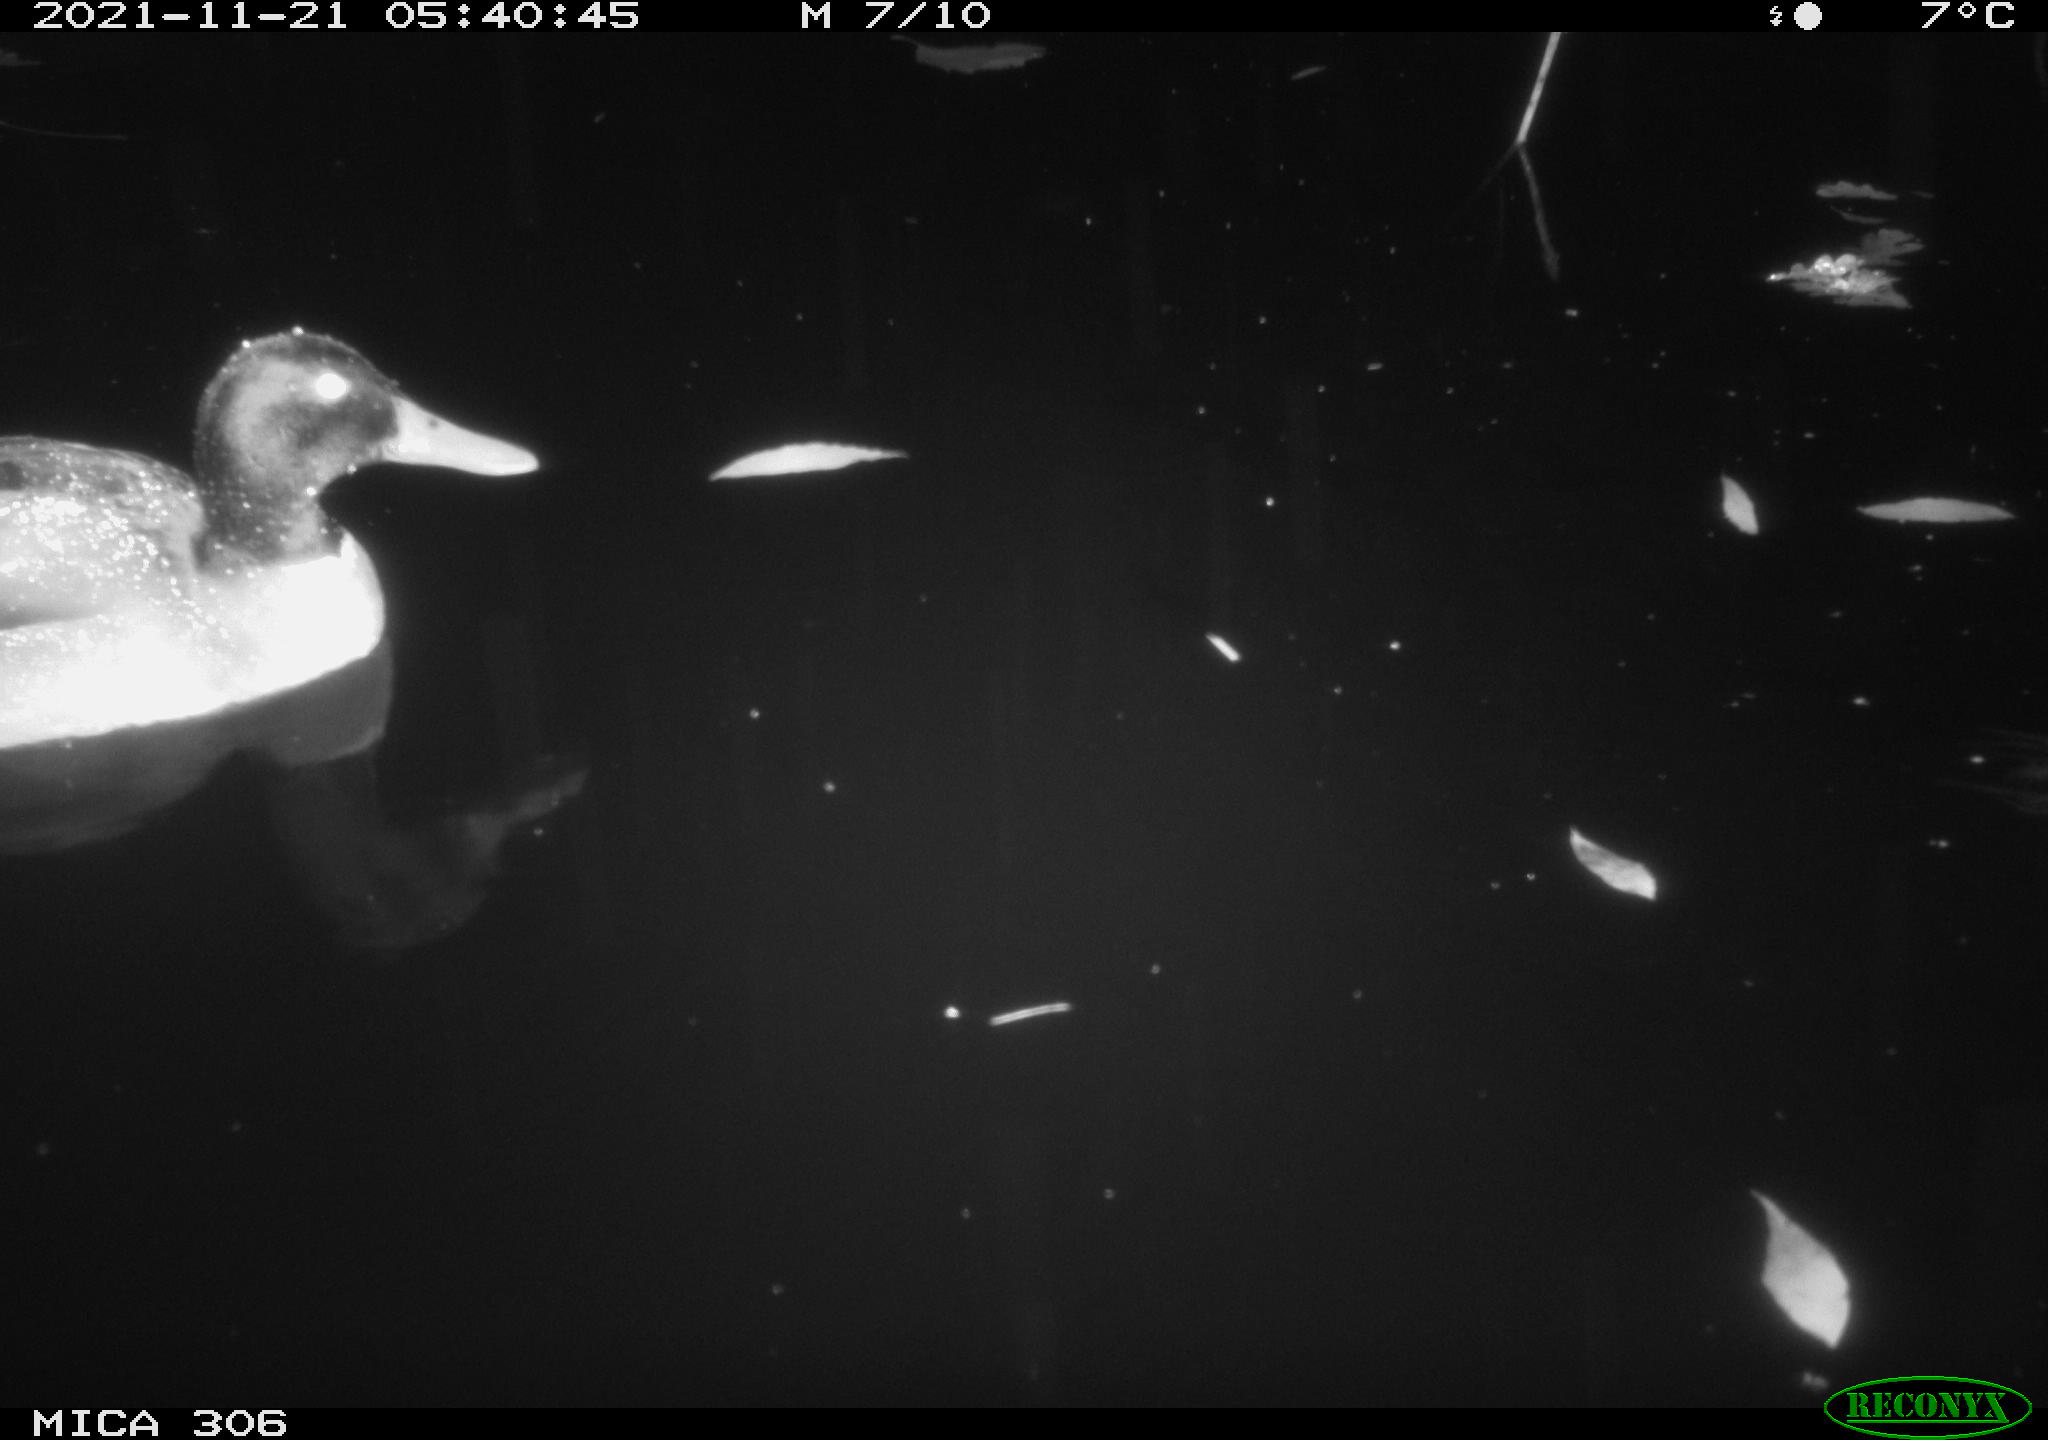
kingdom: Animalia
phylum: Chordata
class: Aves
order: Anseriformes
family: Anatidae
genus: Anas
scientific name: Anas platyrhynchos
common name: Mallard
